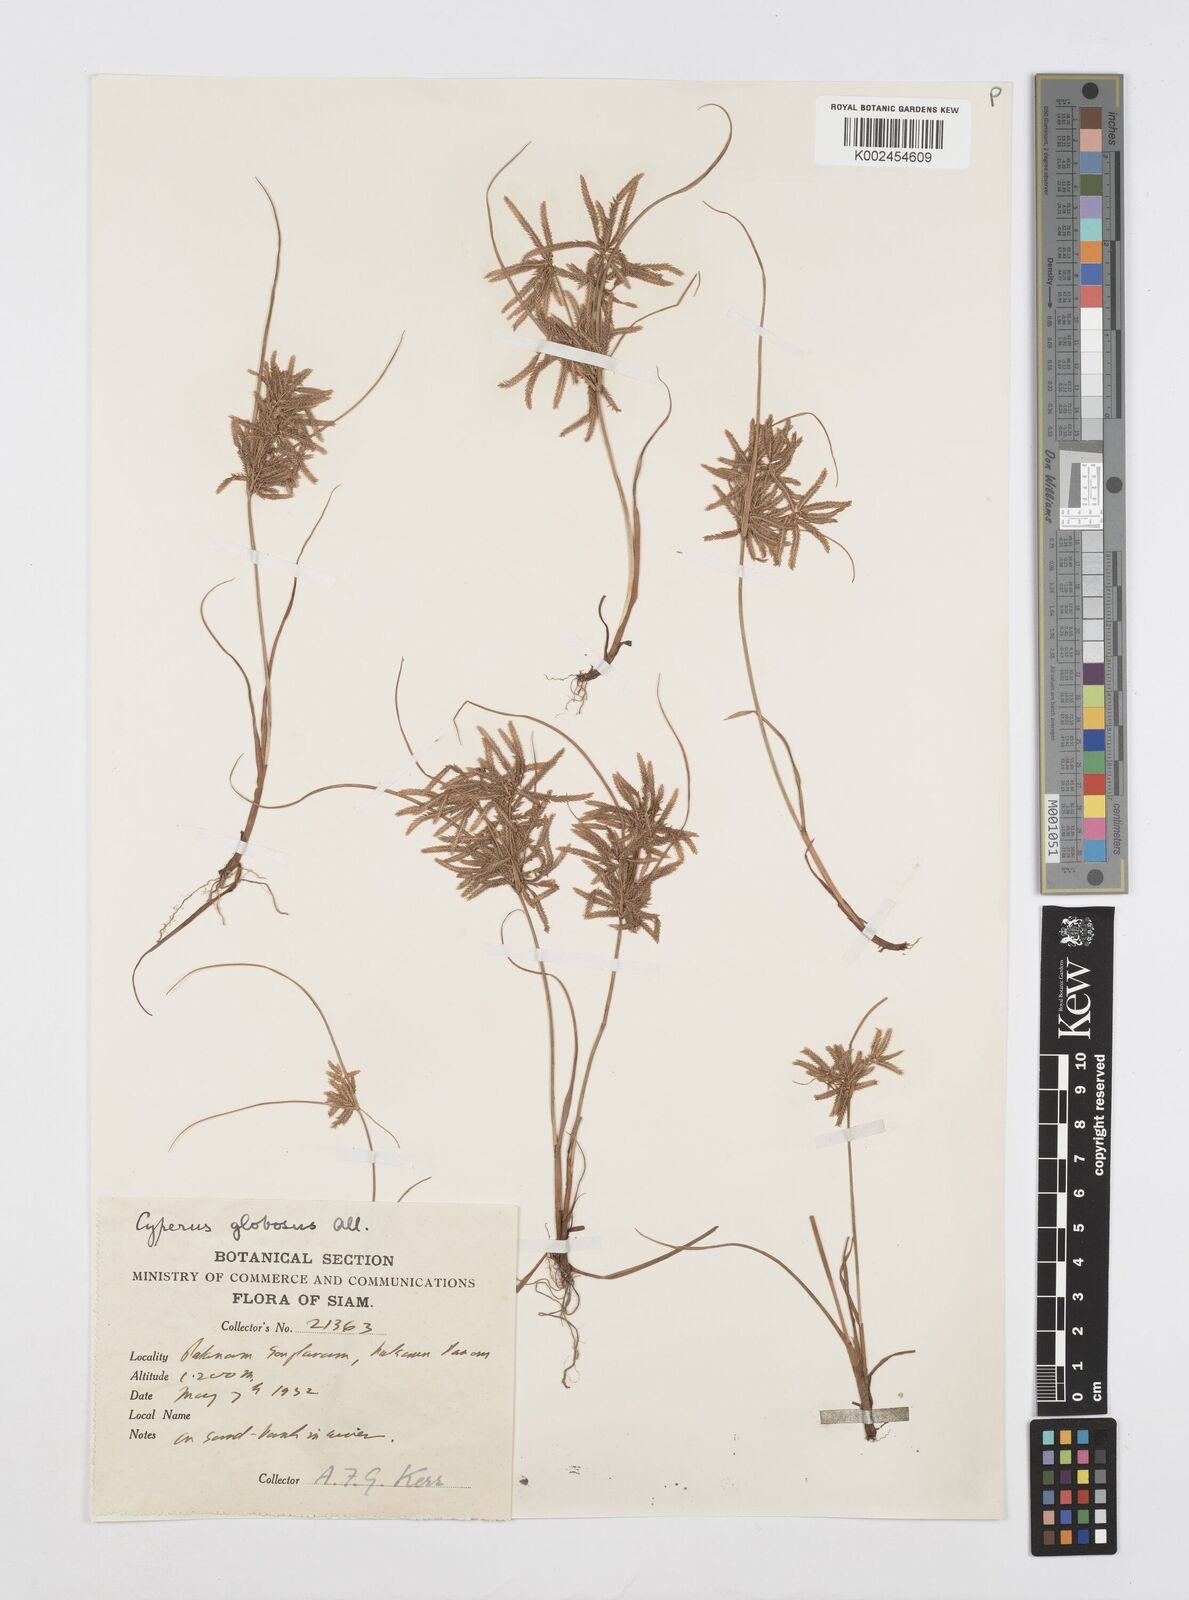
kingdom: Plantae
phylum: Tracheophyta
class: Liliopsida
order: Poales
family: Cyperaceae
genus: Cyperus
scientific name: Cyperus flavidus
